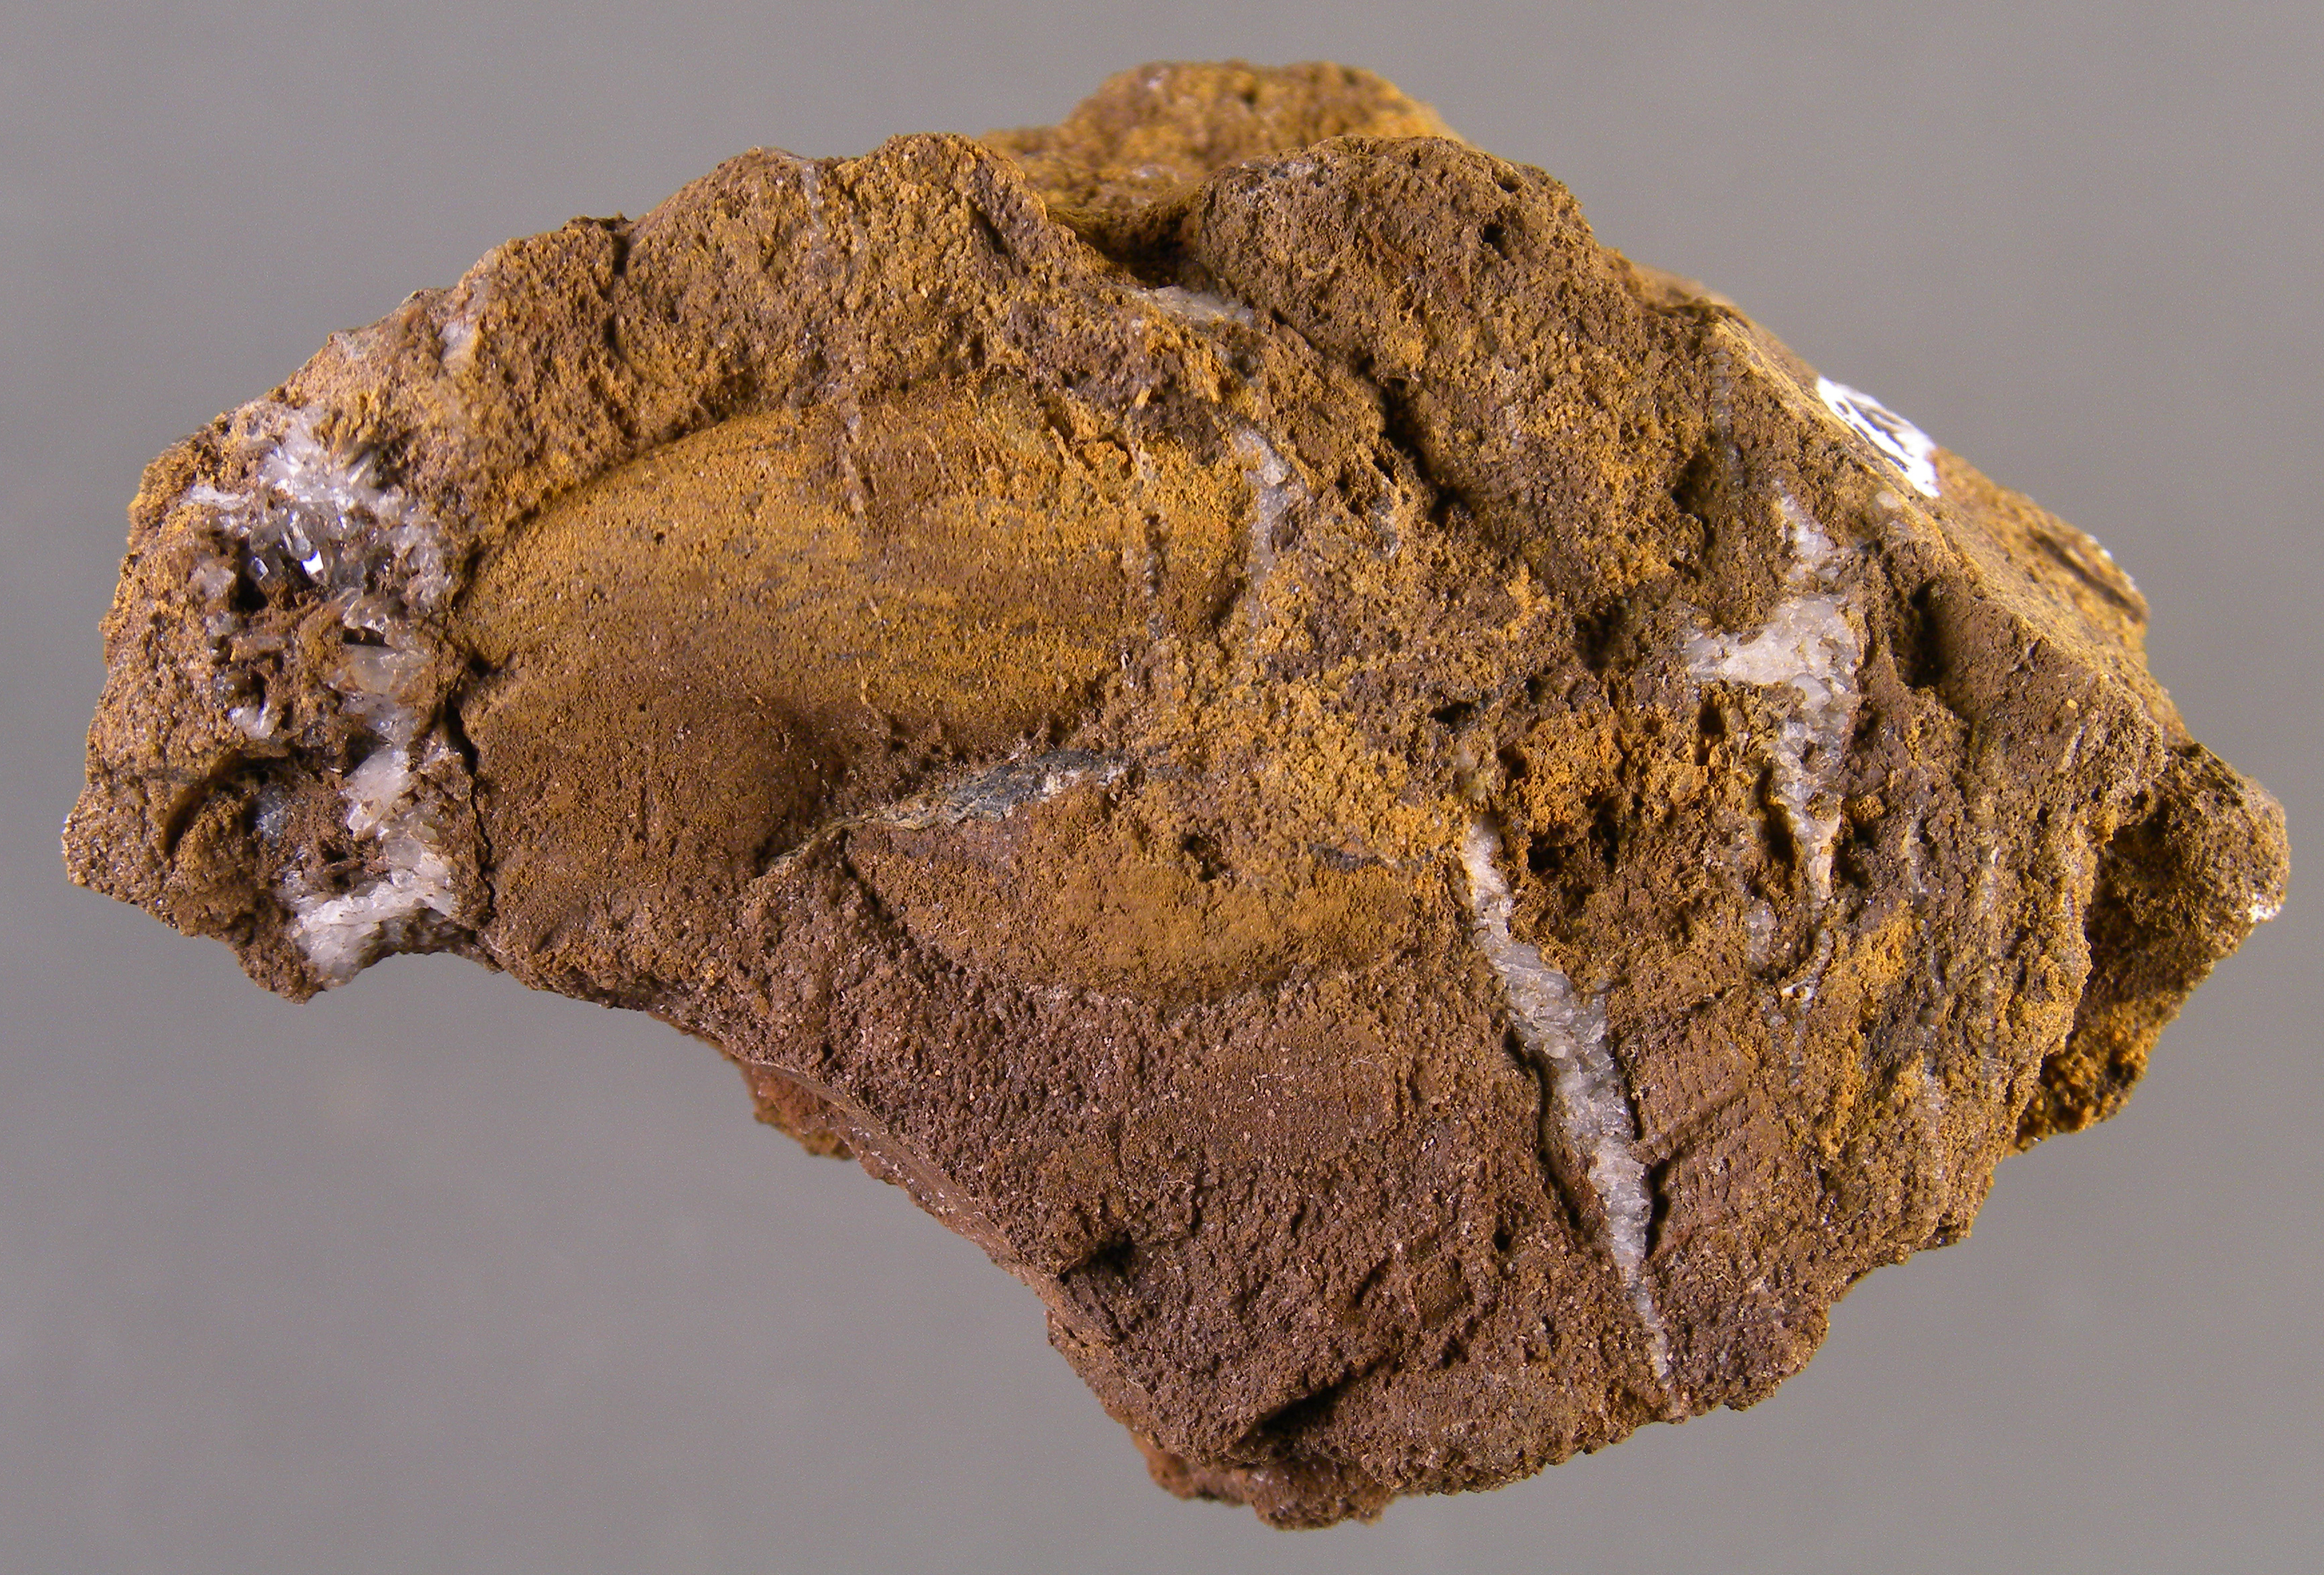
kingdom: Animalia
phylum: Mollusca
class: Bivalvia
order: Ostreida
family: Pterineidae
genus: Ptychopteria
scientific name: Ptychopteria
